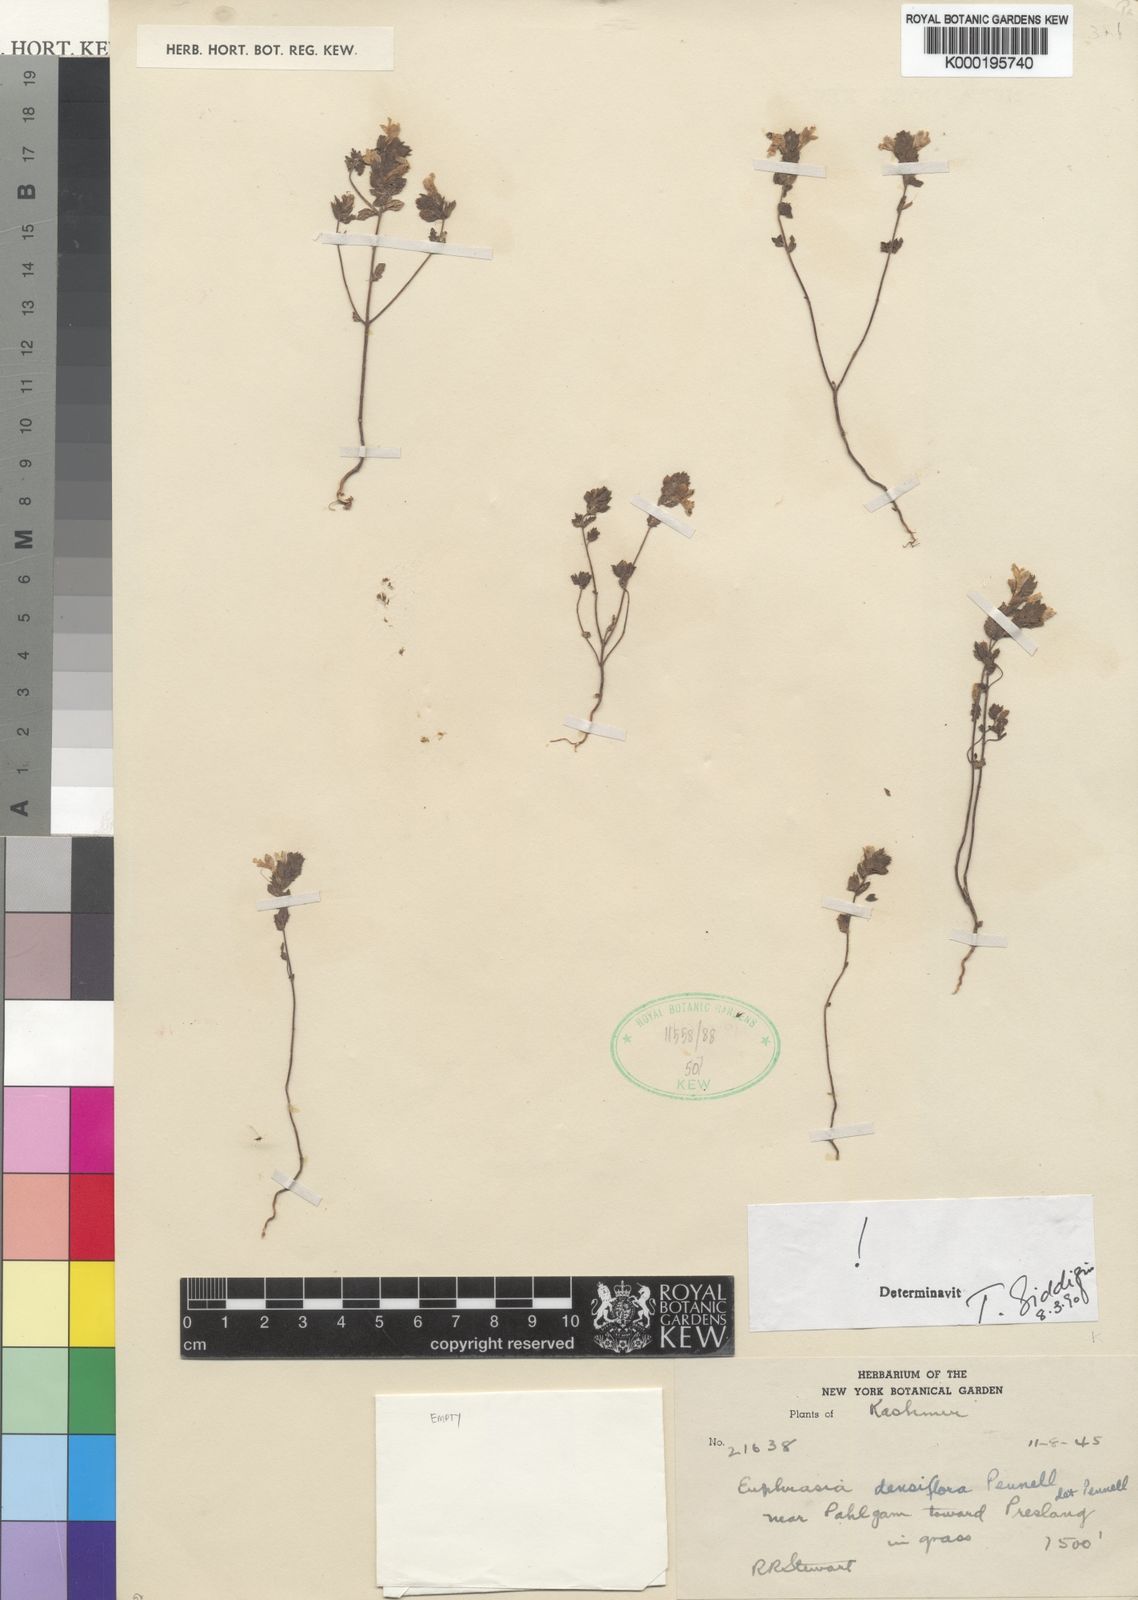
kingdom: Plantae
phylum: Tracheophyta
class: Magnoliopsida
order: Lamiales
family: Orobanchaceae
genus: Euphrasia
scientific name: Euphrasia densiflora
